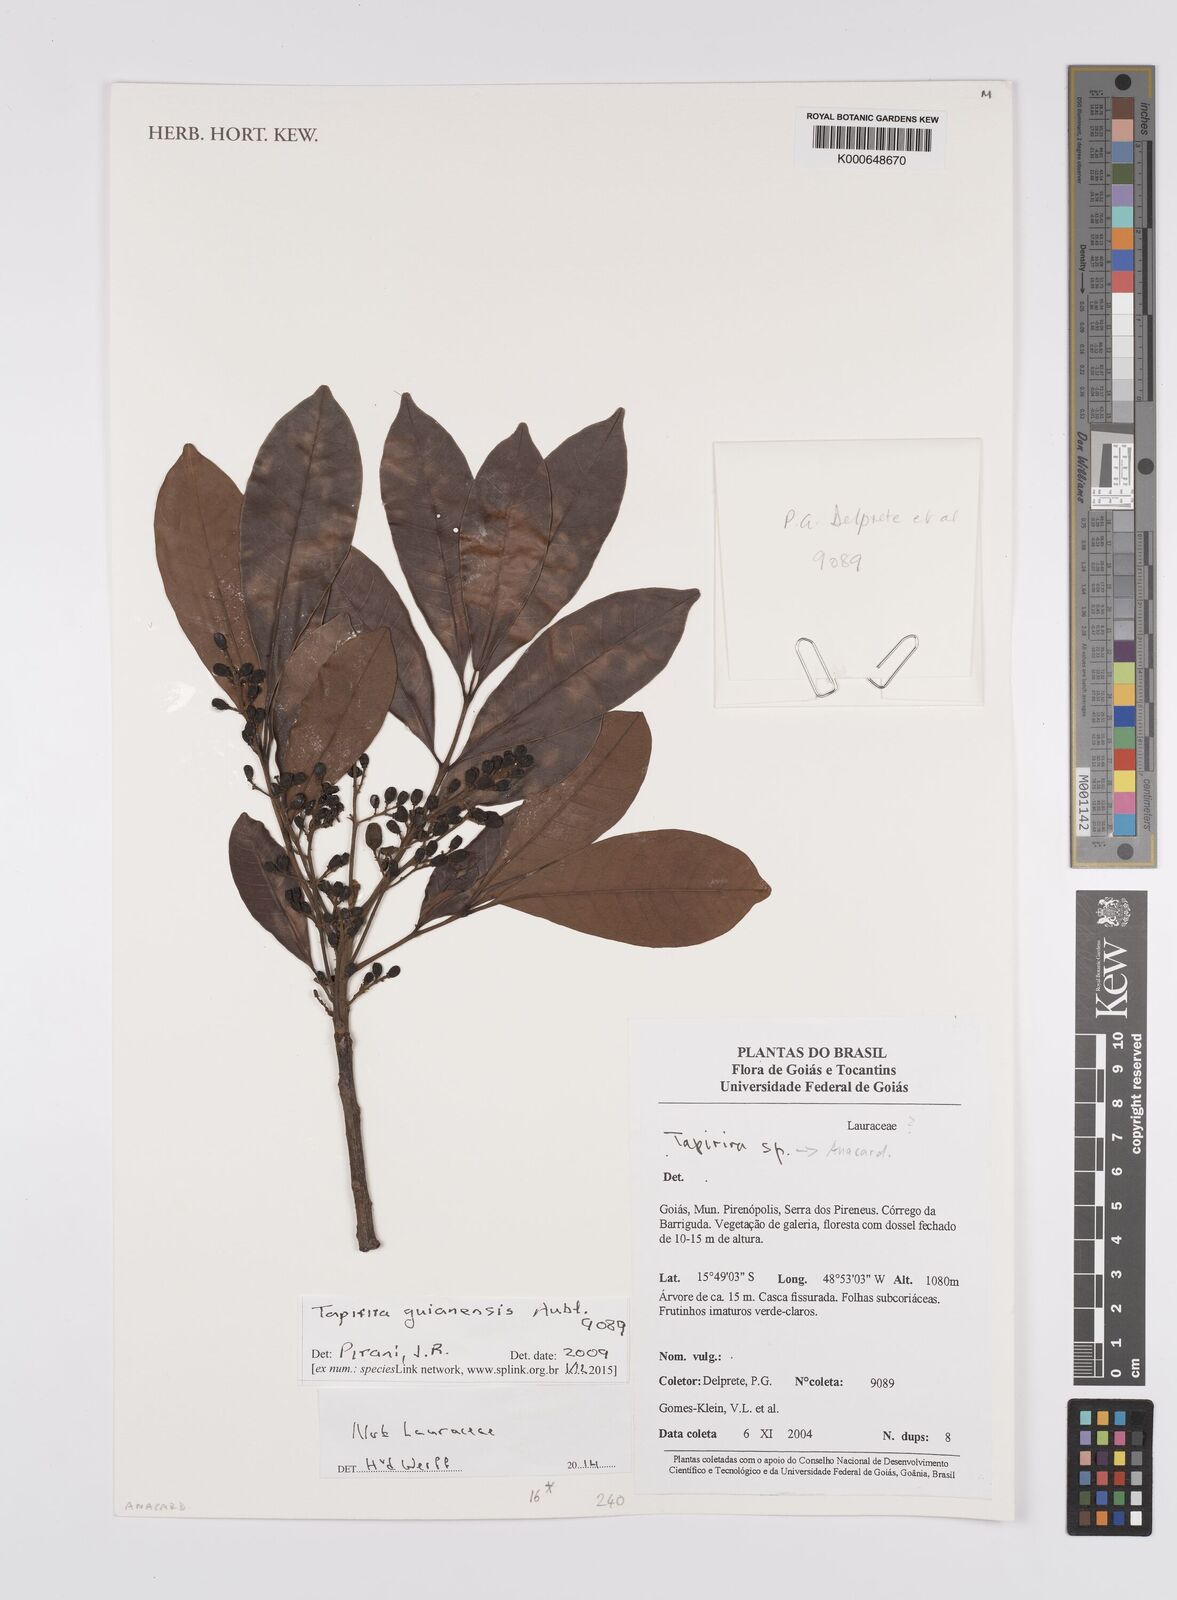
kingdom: Plantae
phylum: Tracheophyta
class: Magnoliopsida
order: Sapindales
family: Anacardiaceae
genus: Tapirira
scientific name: Tapirira guianensis
